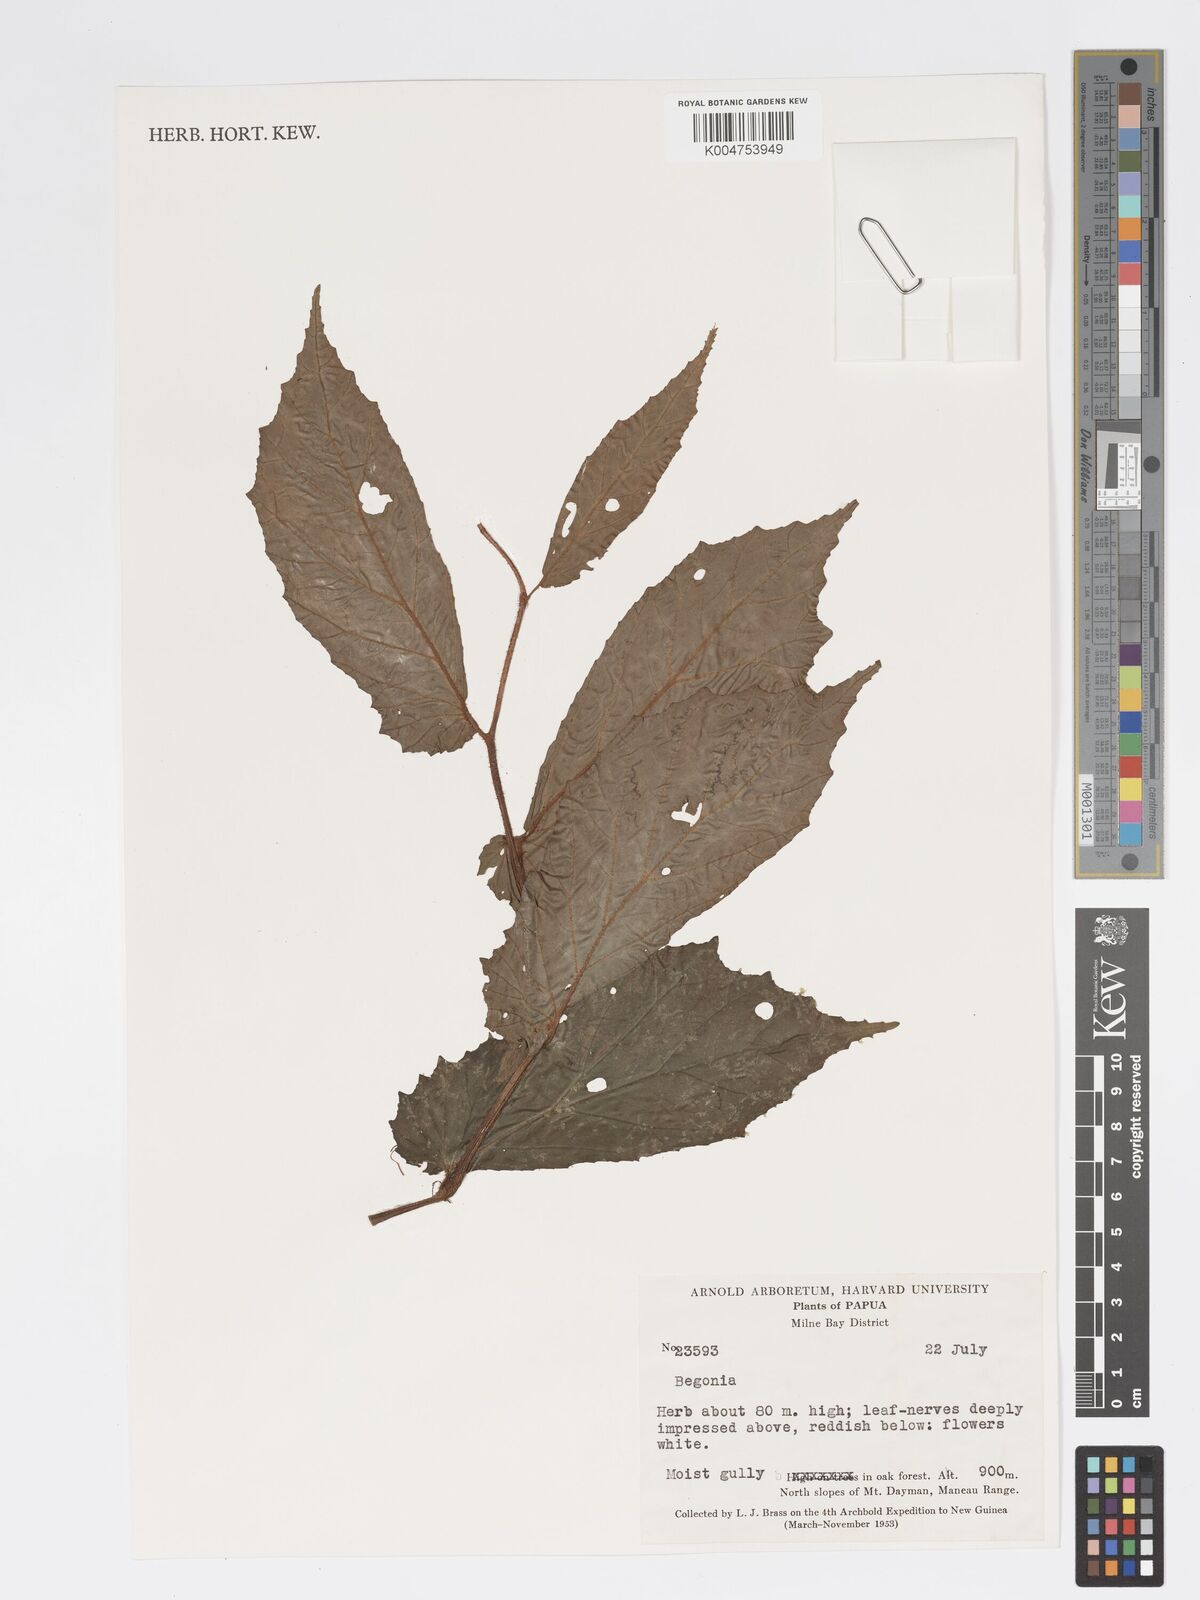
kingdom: Plantae
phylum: Tracheophyta
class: Magnoliopsida
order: Cucurbitales
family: Begoniaceae
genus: Begonia
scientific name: Begonia
